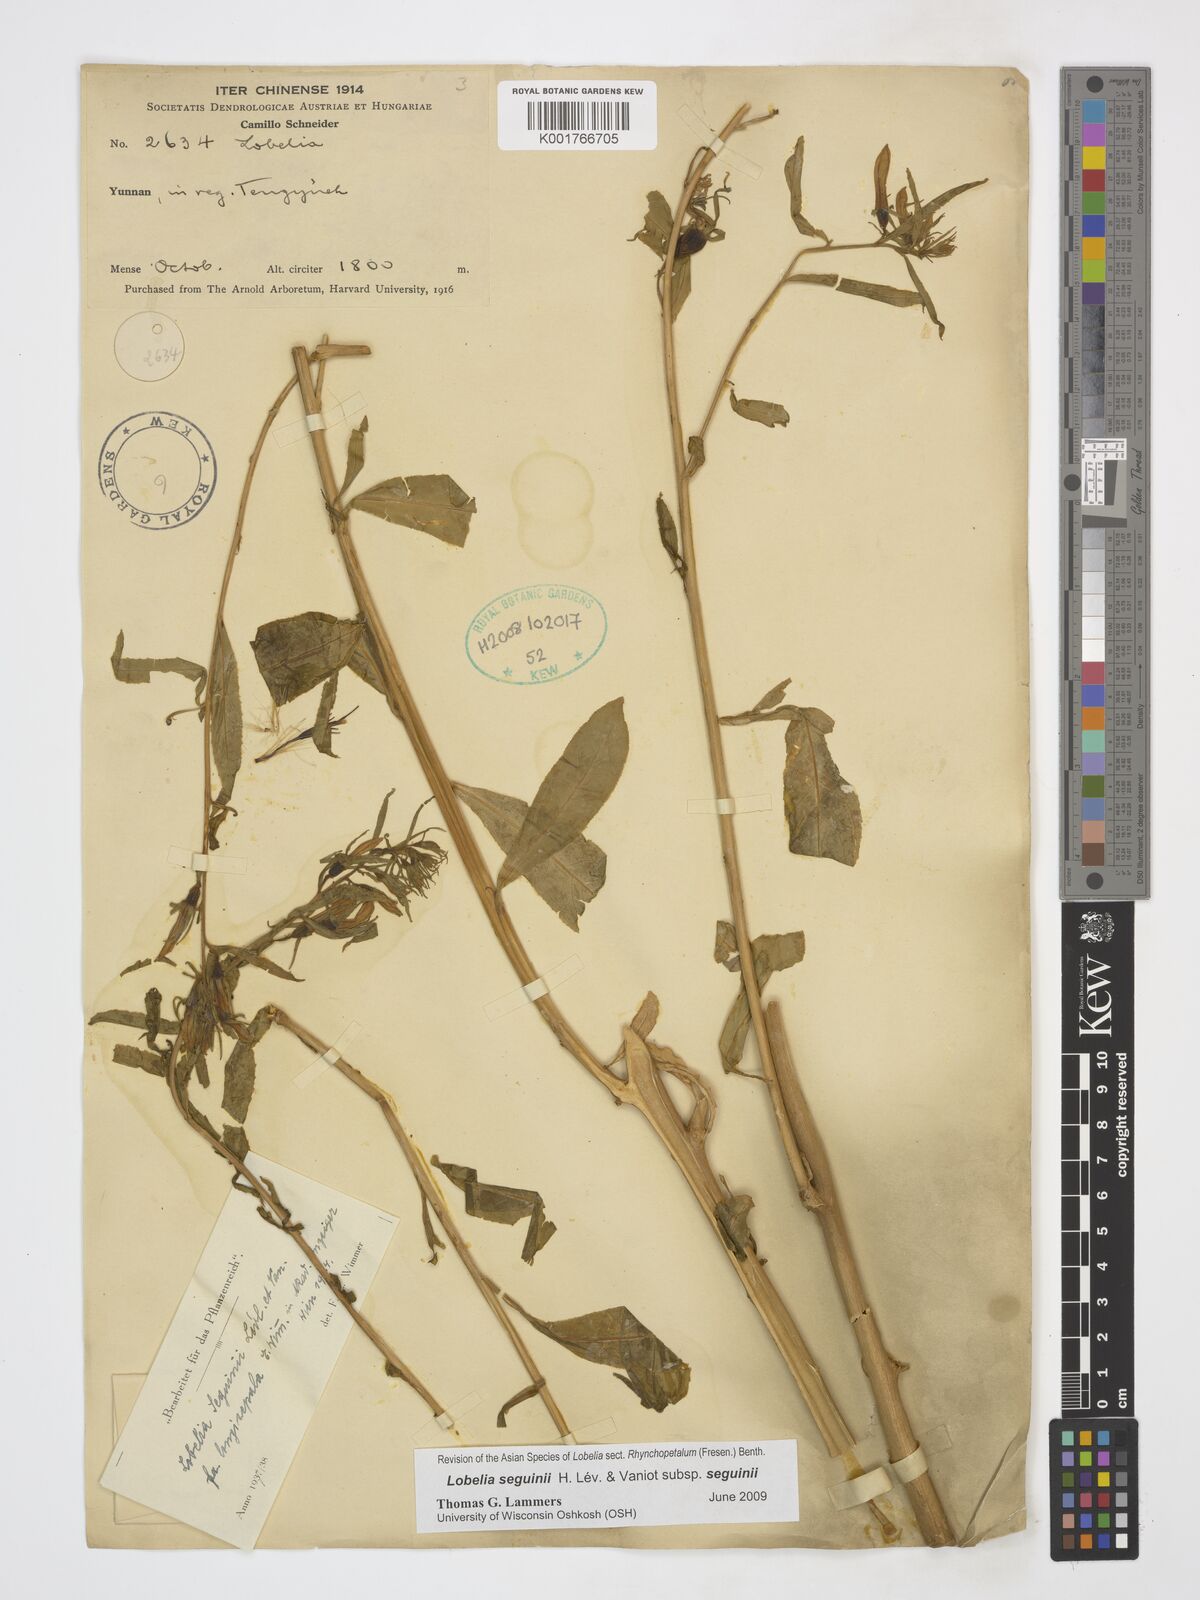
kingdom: Plantae
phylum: Tracheophyta
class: Magnoliopsida
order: Asterales
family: Campanulaceae
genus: Lobelia
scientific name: Lobelia seguinii
